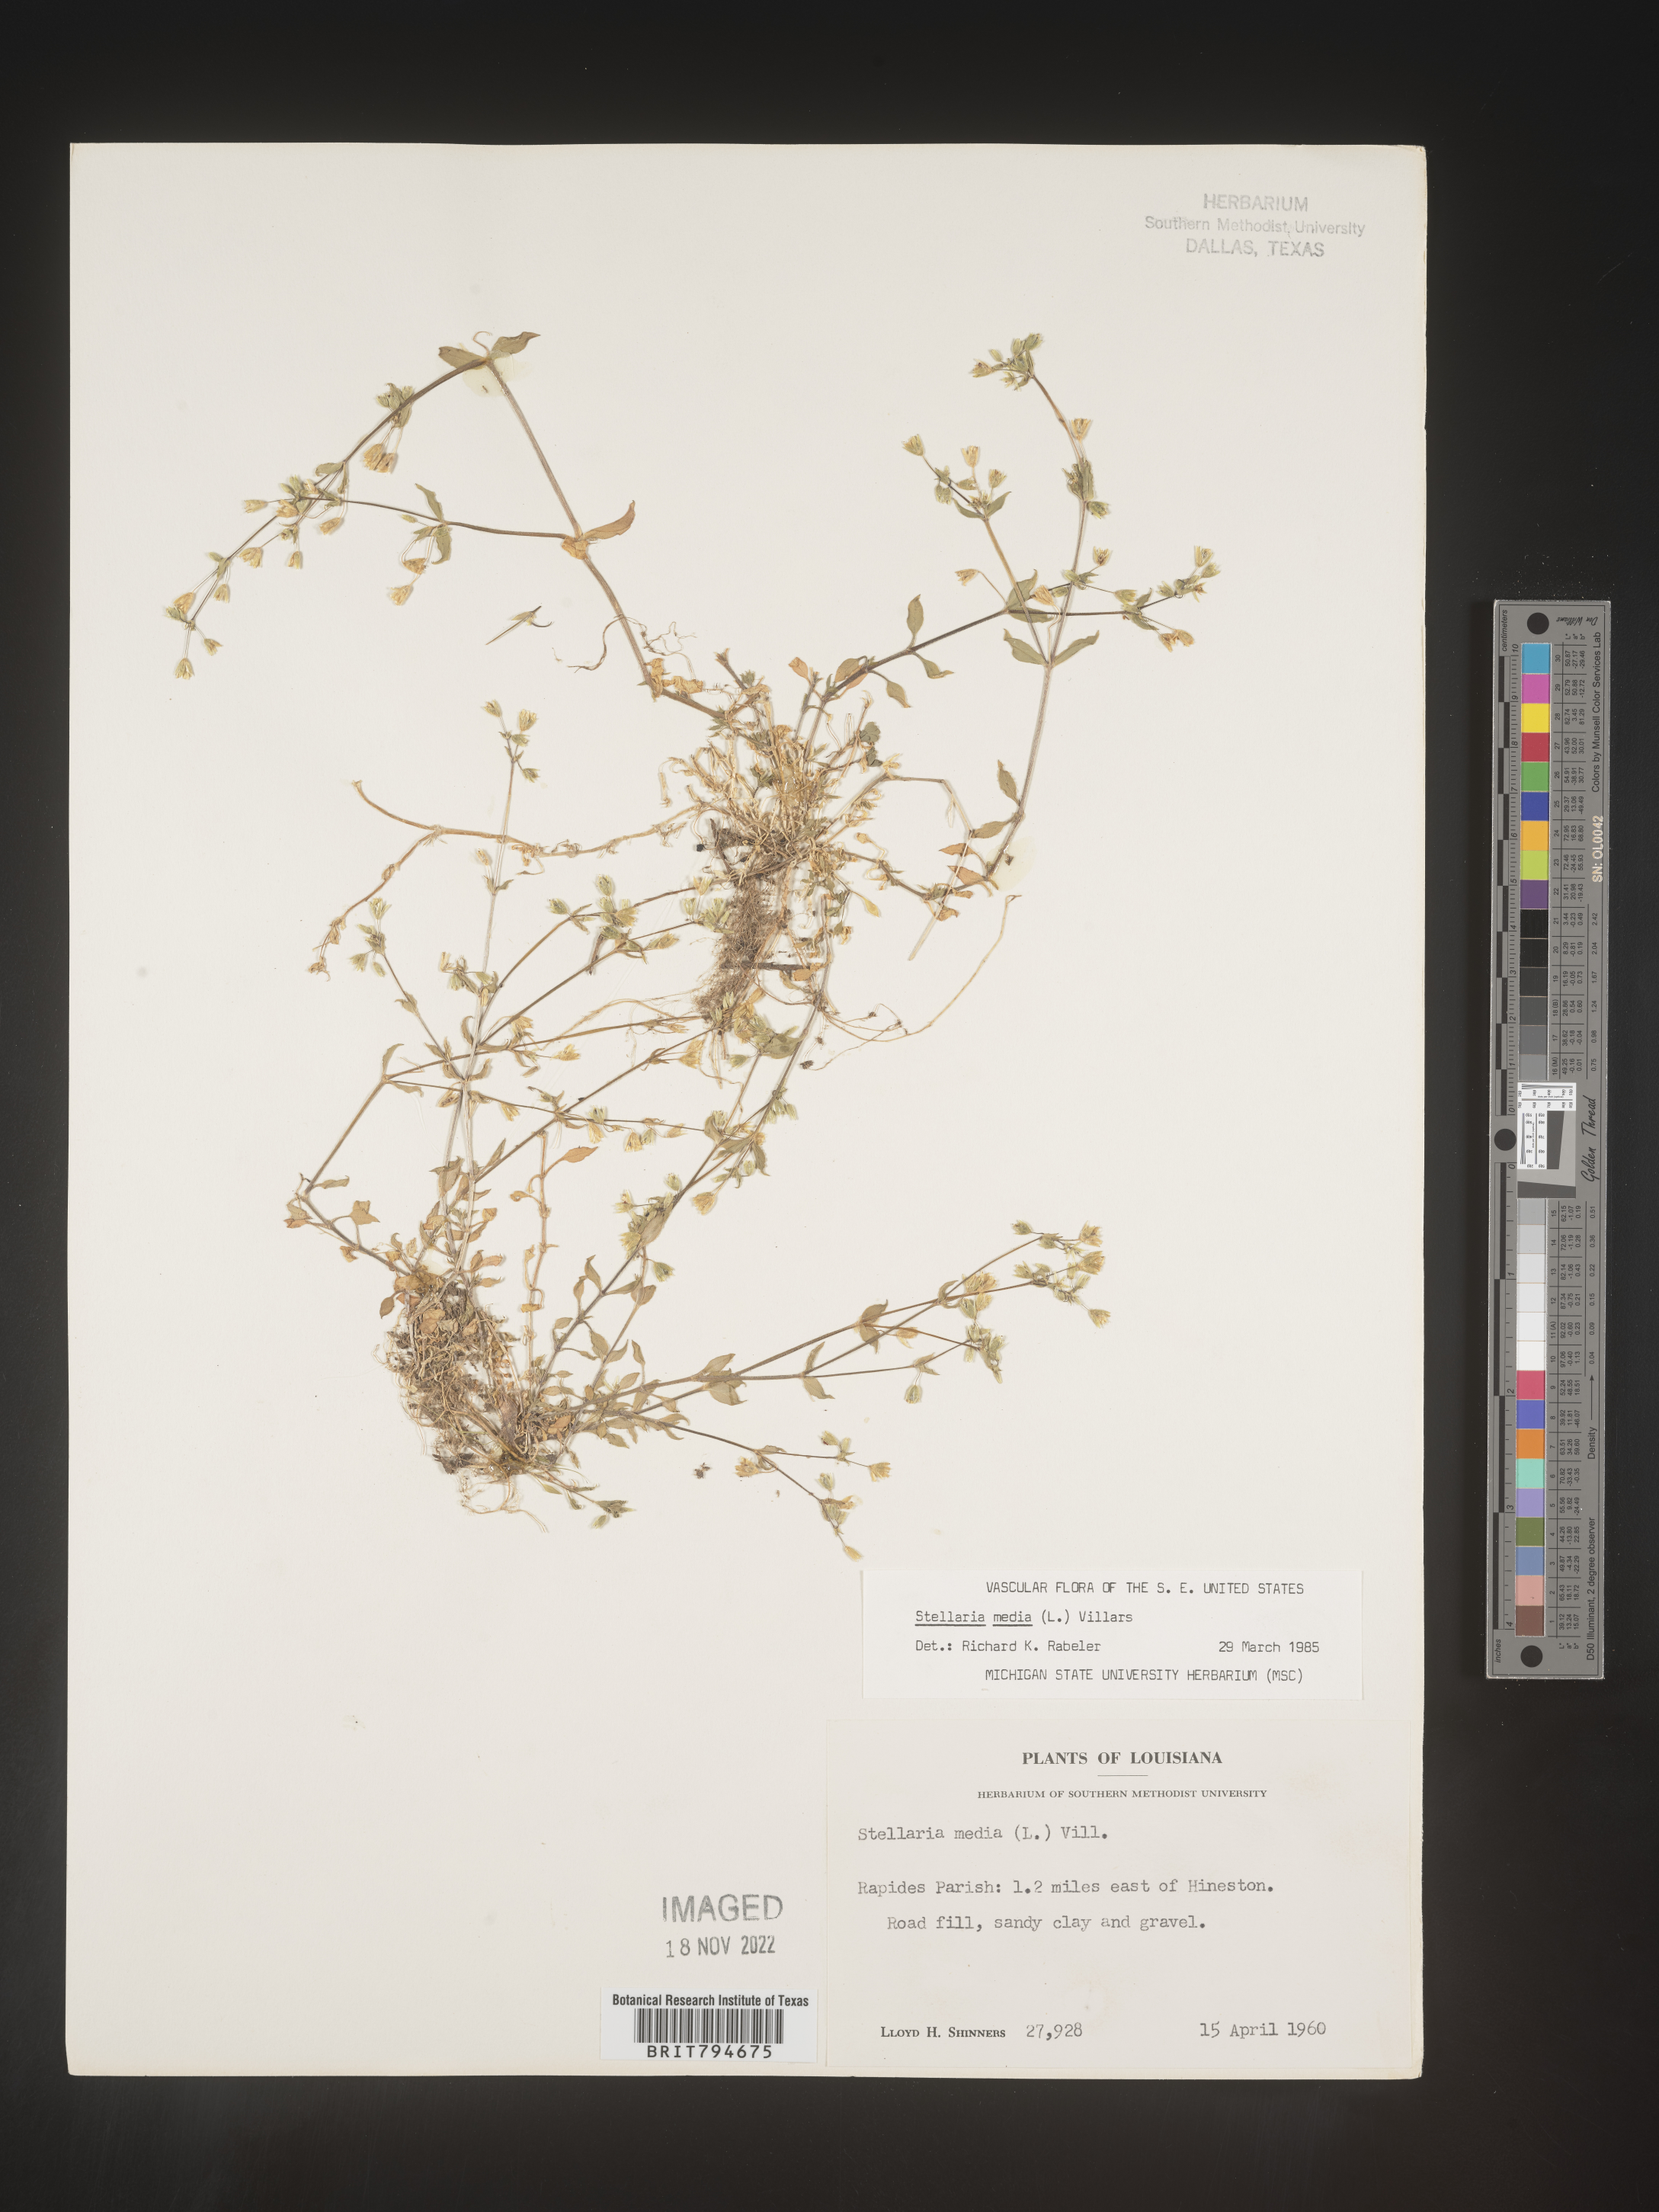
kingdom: Plantae
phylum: Tracheophyta
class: Magnoliopsida
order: Caryophyllales
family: Caryophyllaceae
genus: Stellaria
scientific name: Stellaria media
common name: Common chickweed
